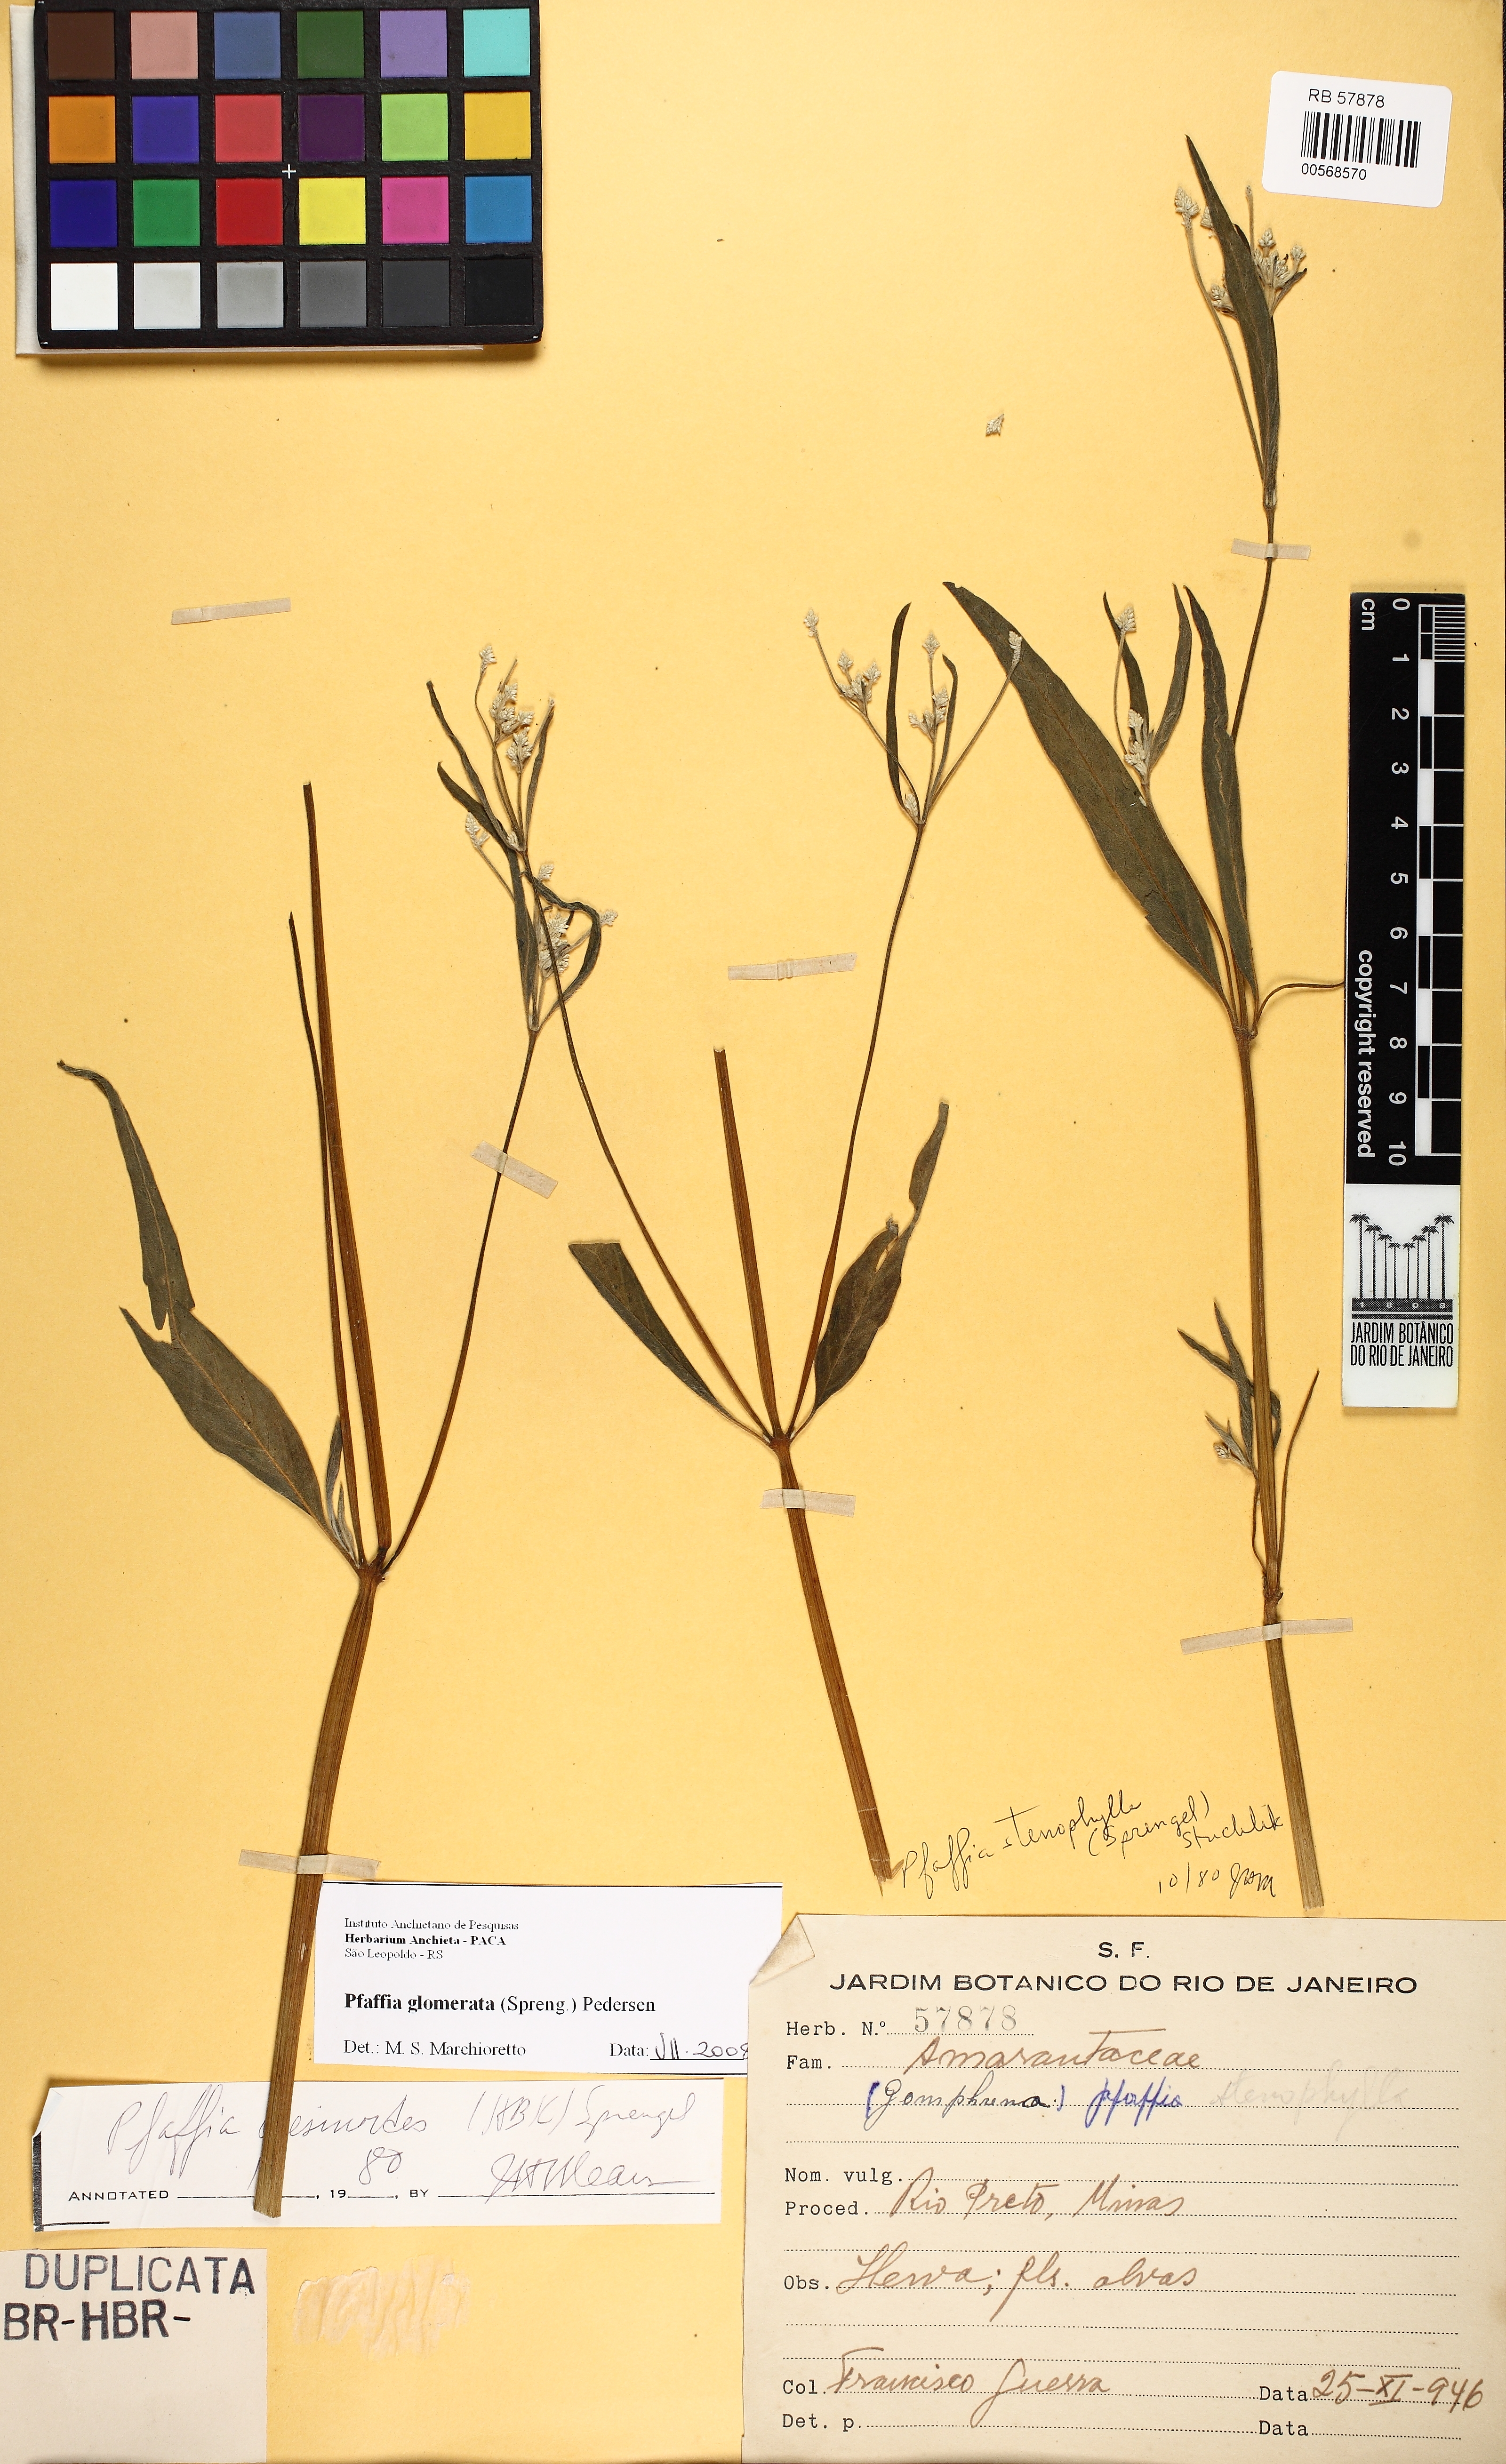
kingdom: Plantae
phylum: Tracheophyta
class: Magnoliopsida
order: Caryophyllales
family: Amaranthaceae
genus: Pfaffia
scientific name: Pfaffia glomerata
